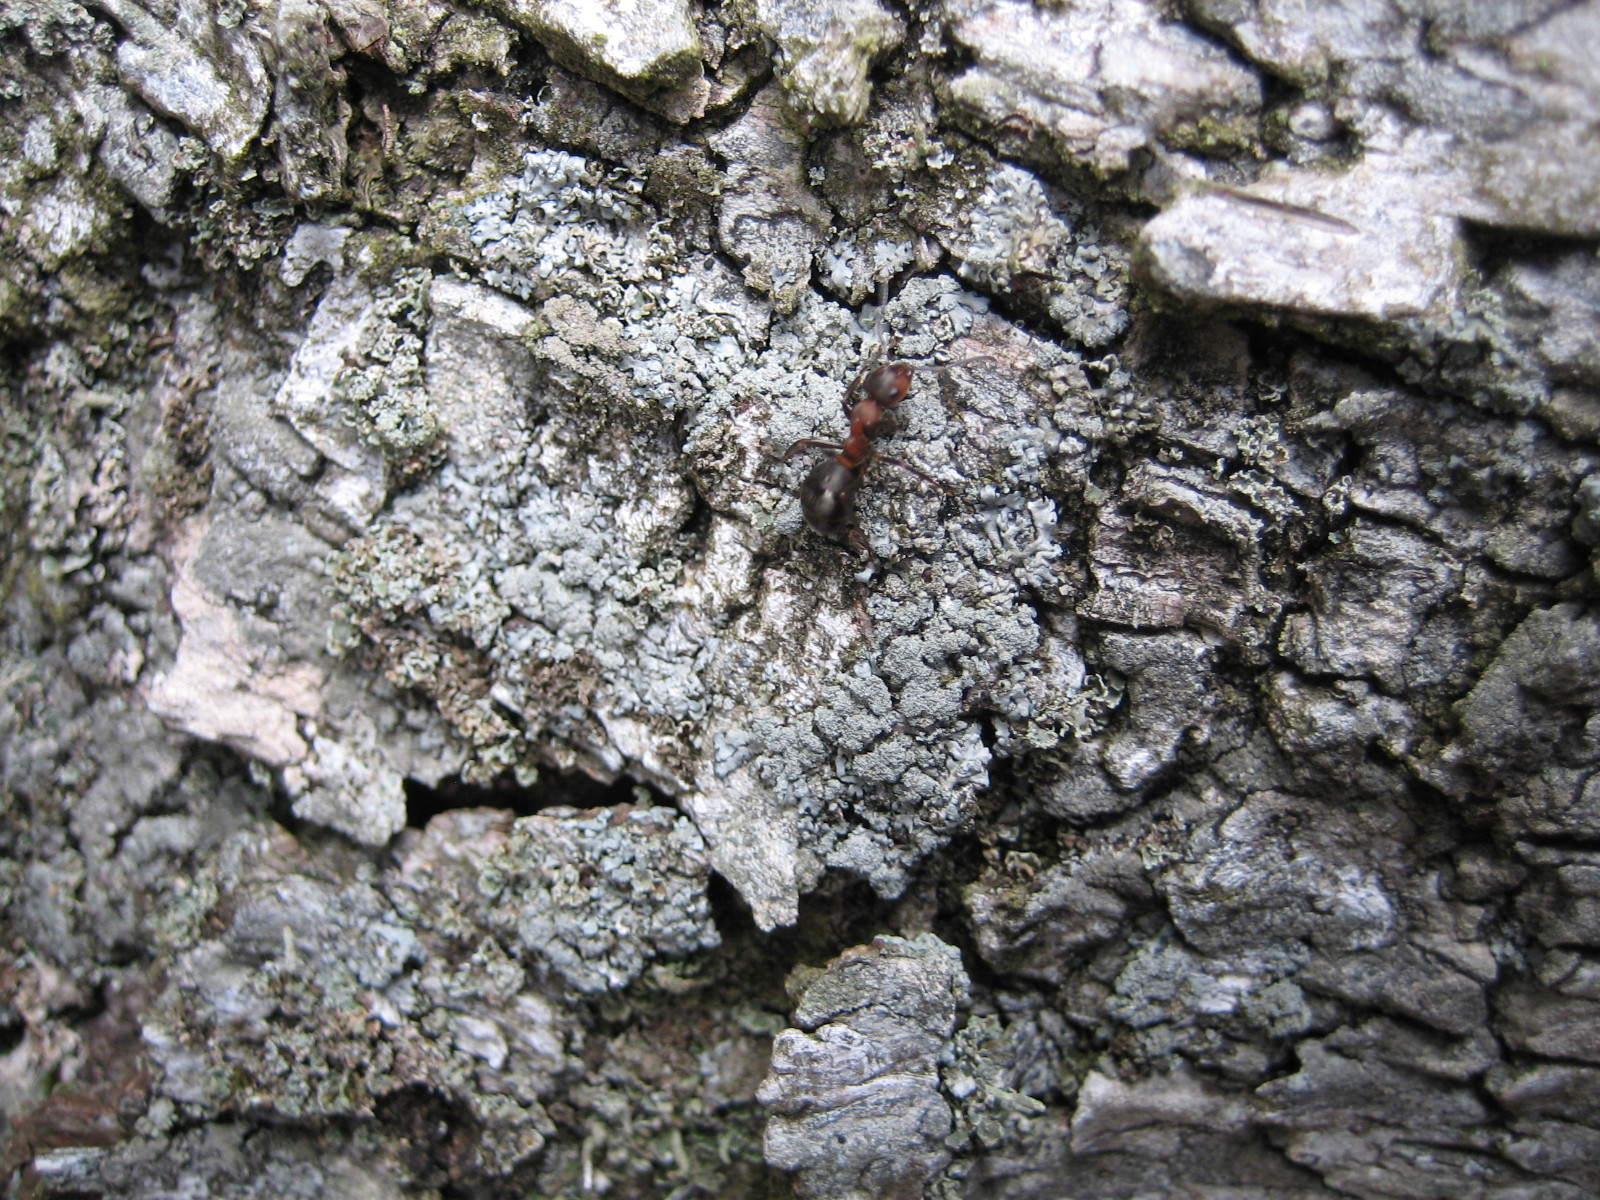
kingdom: Fungi
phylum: Ascomycota
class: Lecanoromycetes
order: Lecanorales
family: Parmeliaceae
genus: Imshaugia
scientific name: Imshaugia aleurites
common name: kliddet stolpelav
